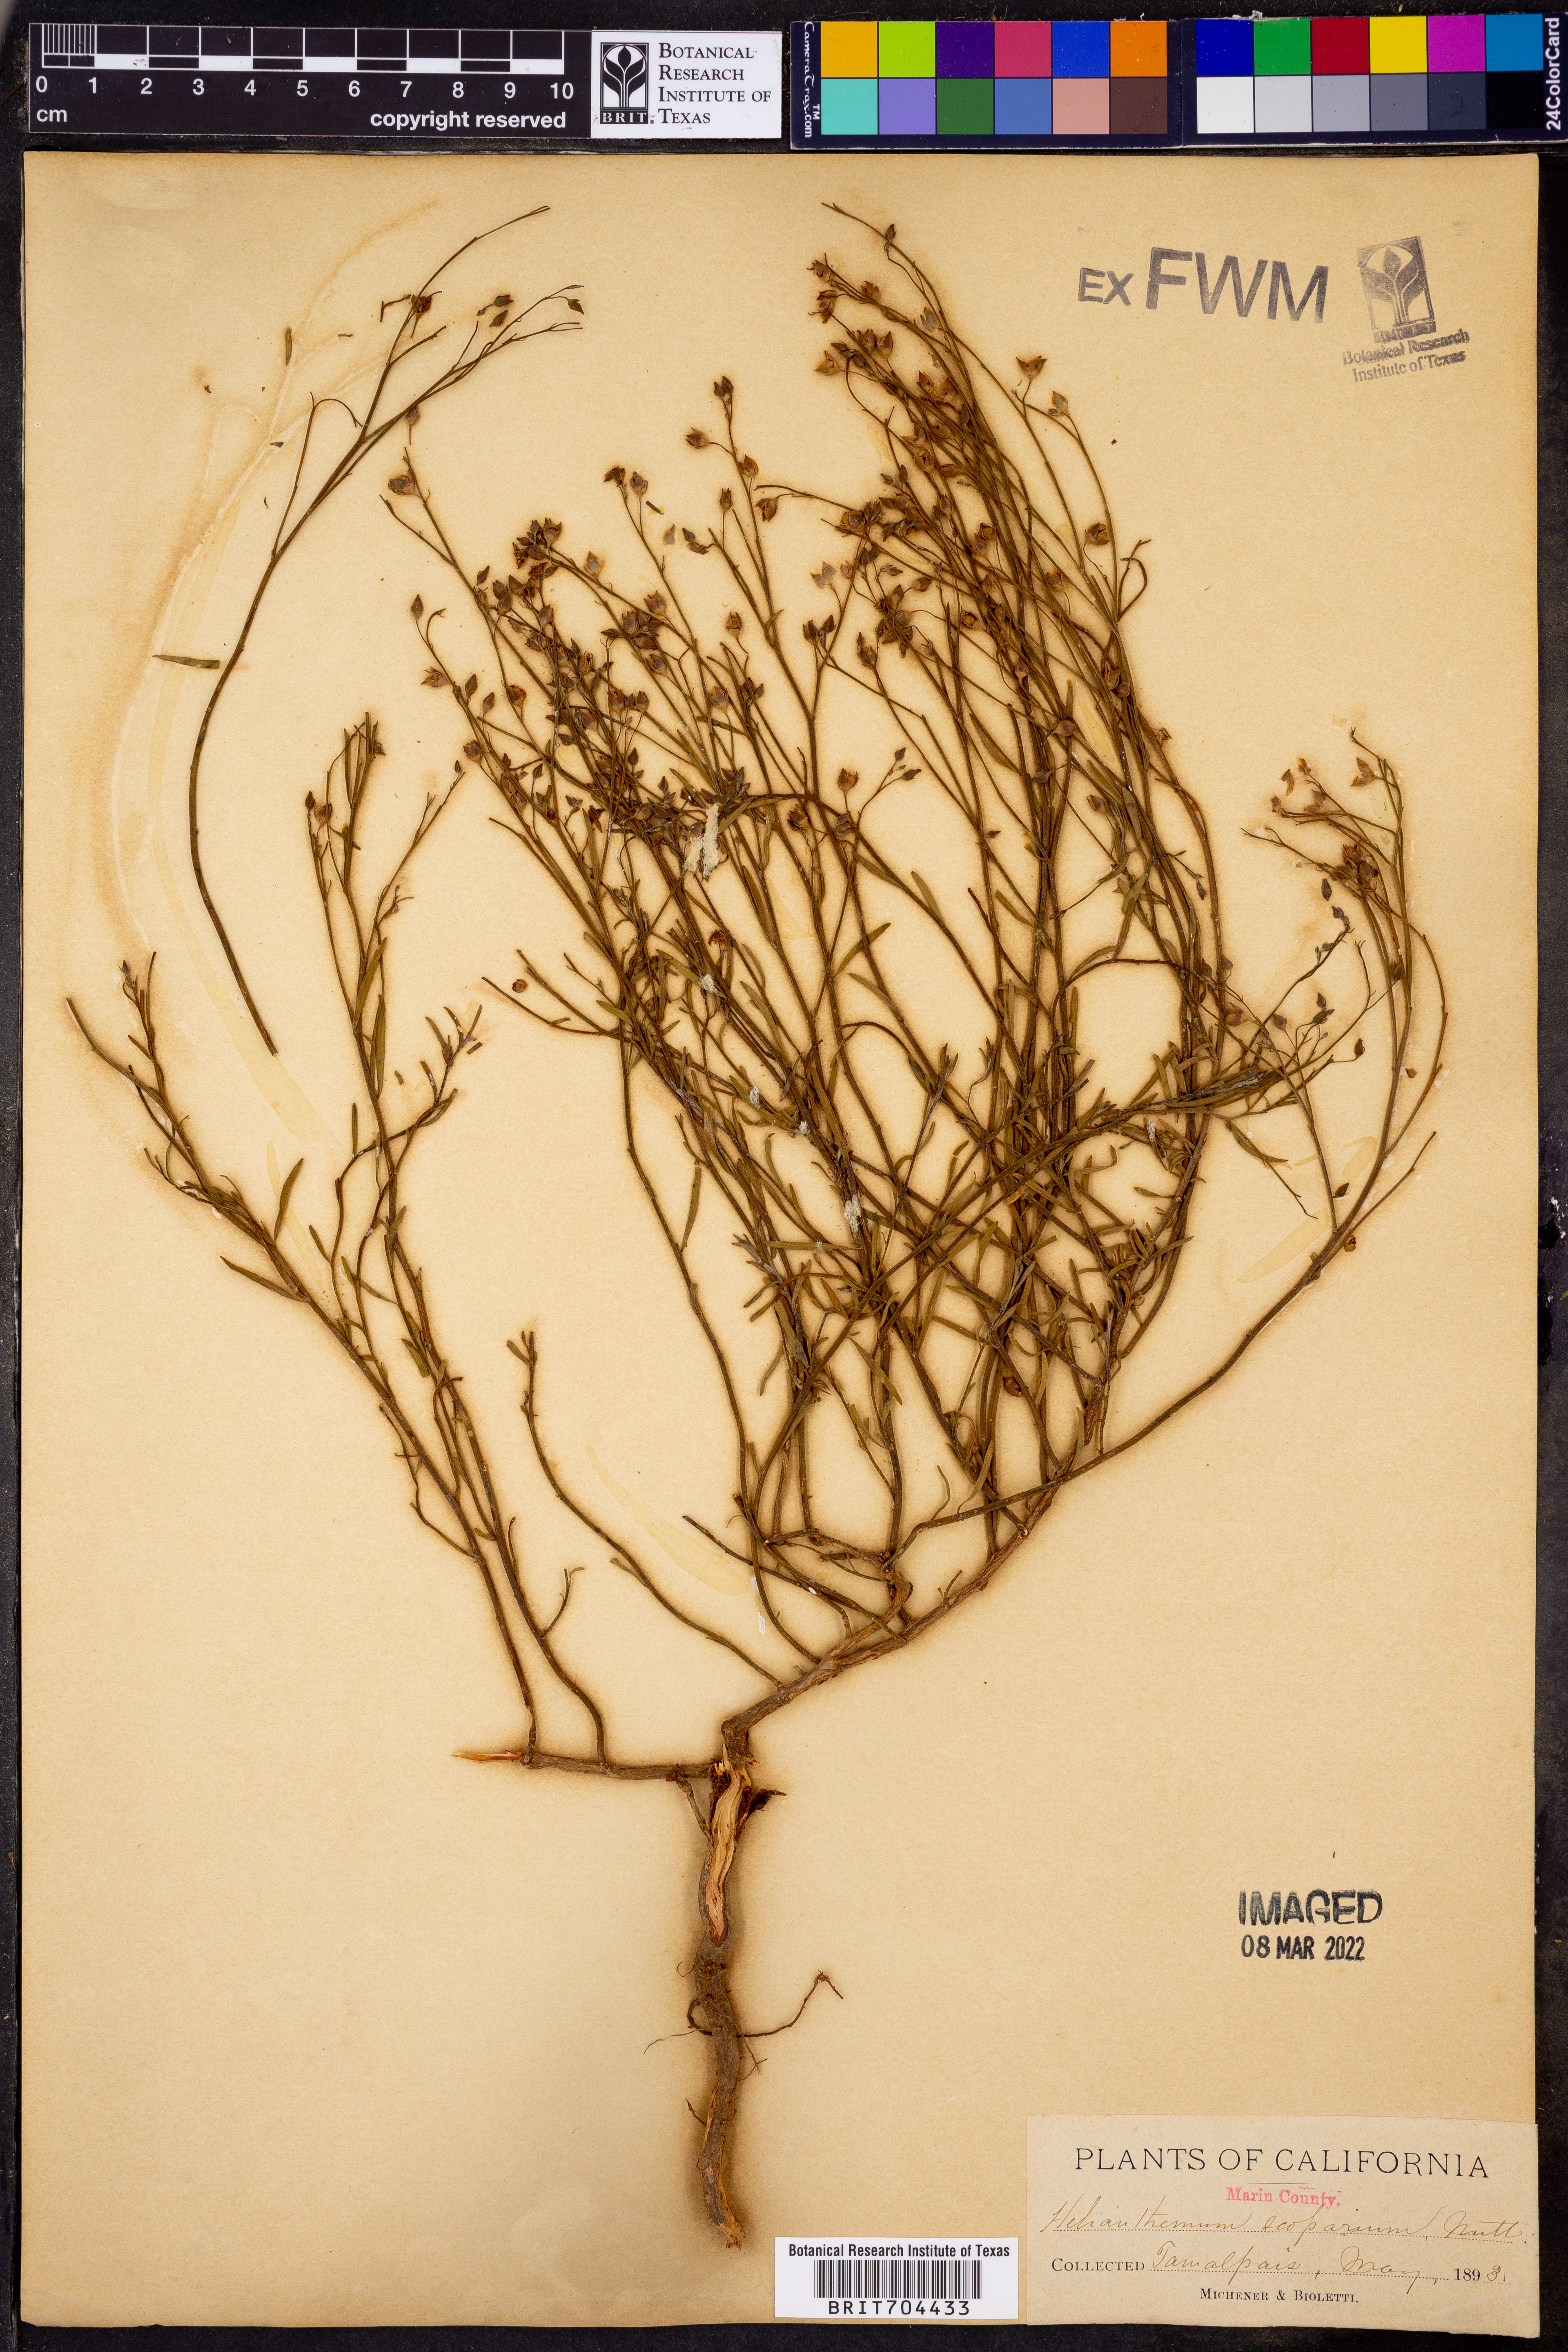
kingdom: Plantae
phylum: Tracheophyta
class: Magnoliopsida
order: Malvales
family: Cistaceae
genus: Helianthemum
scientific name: Helianthemum
